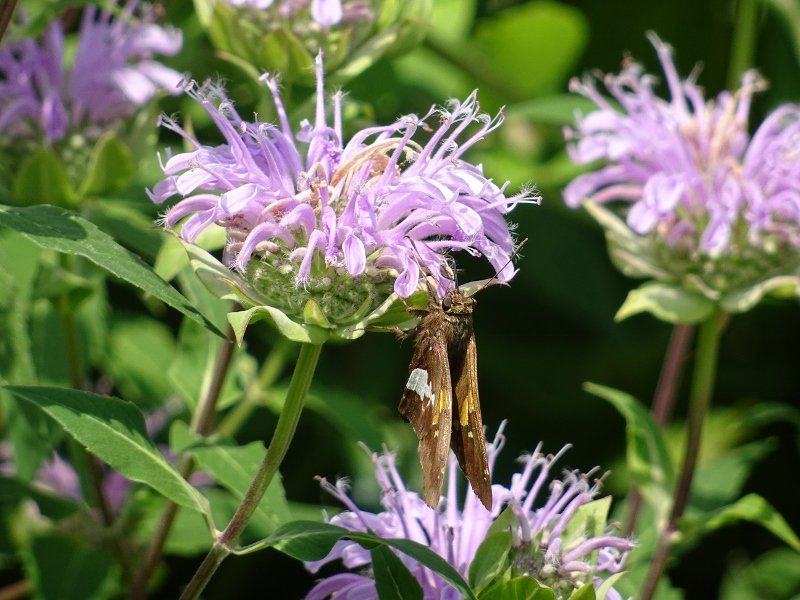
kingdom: Animalia
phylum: Arthropoda
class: Insecta
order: Lepidoptera
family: Hesperiidae
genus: Epargyreus
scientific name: Epargyreus clarus
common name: Silver-spotted Skipper
